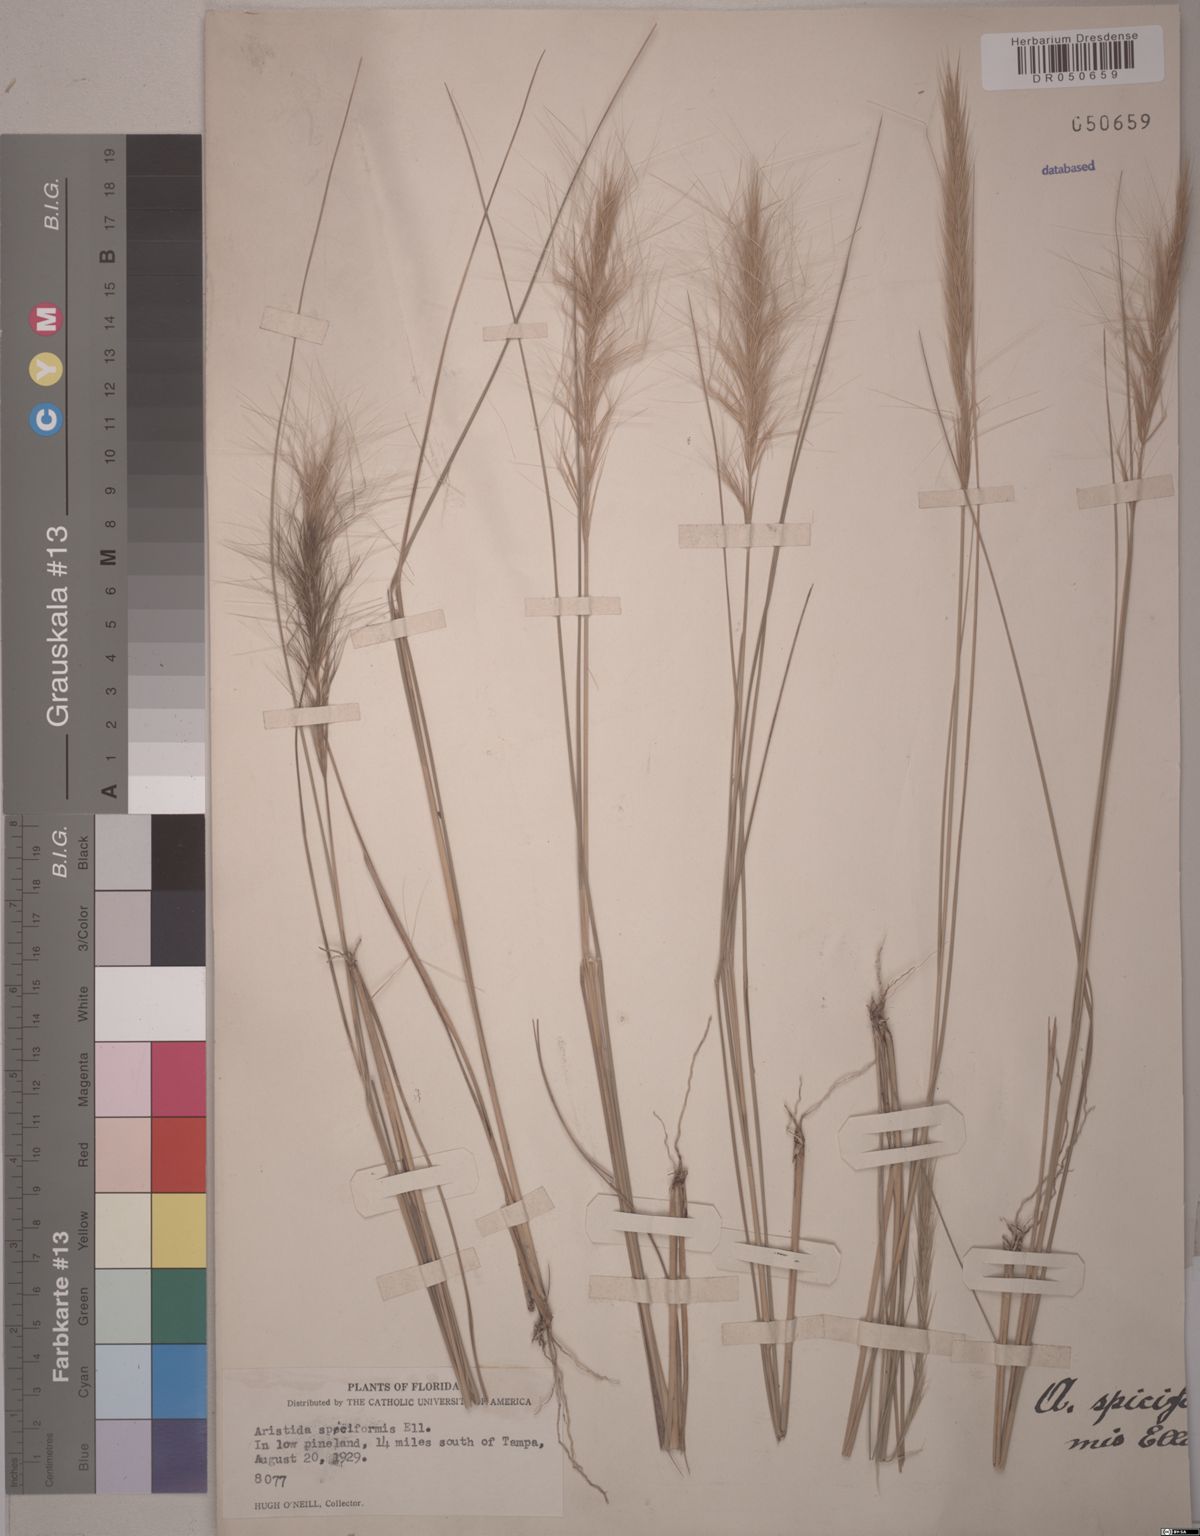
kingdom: Plantae
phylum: Tracheophyta
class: Liliopsida
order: Poales
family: Poaceae
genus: Aristida
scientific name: Aristida spiciformis
